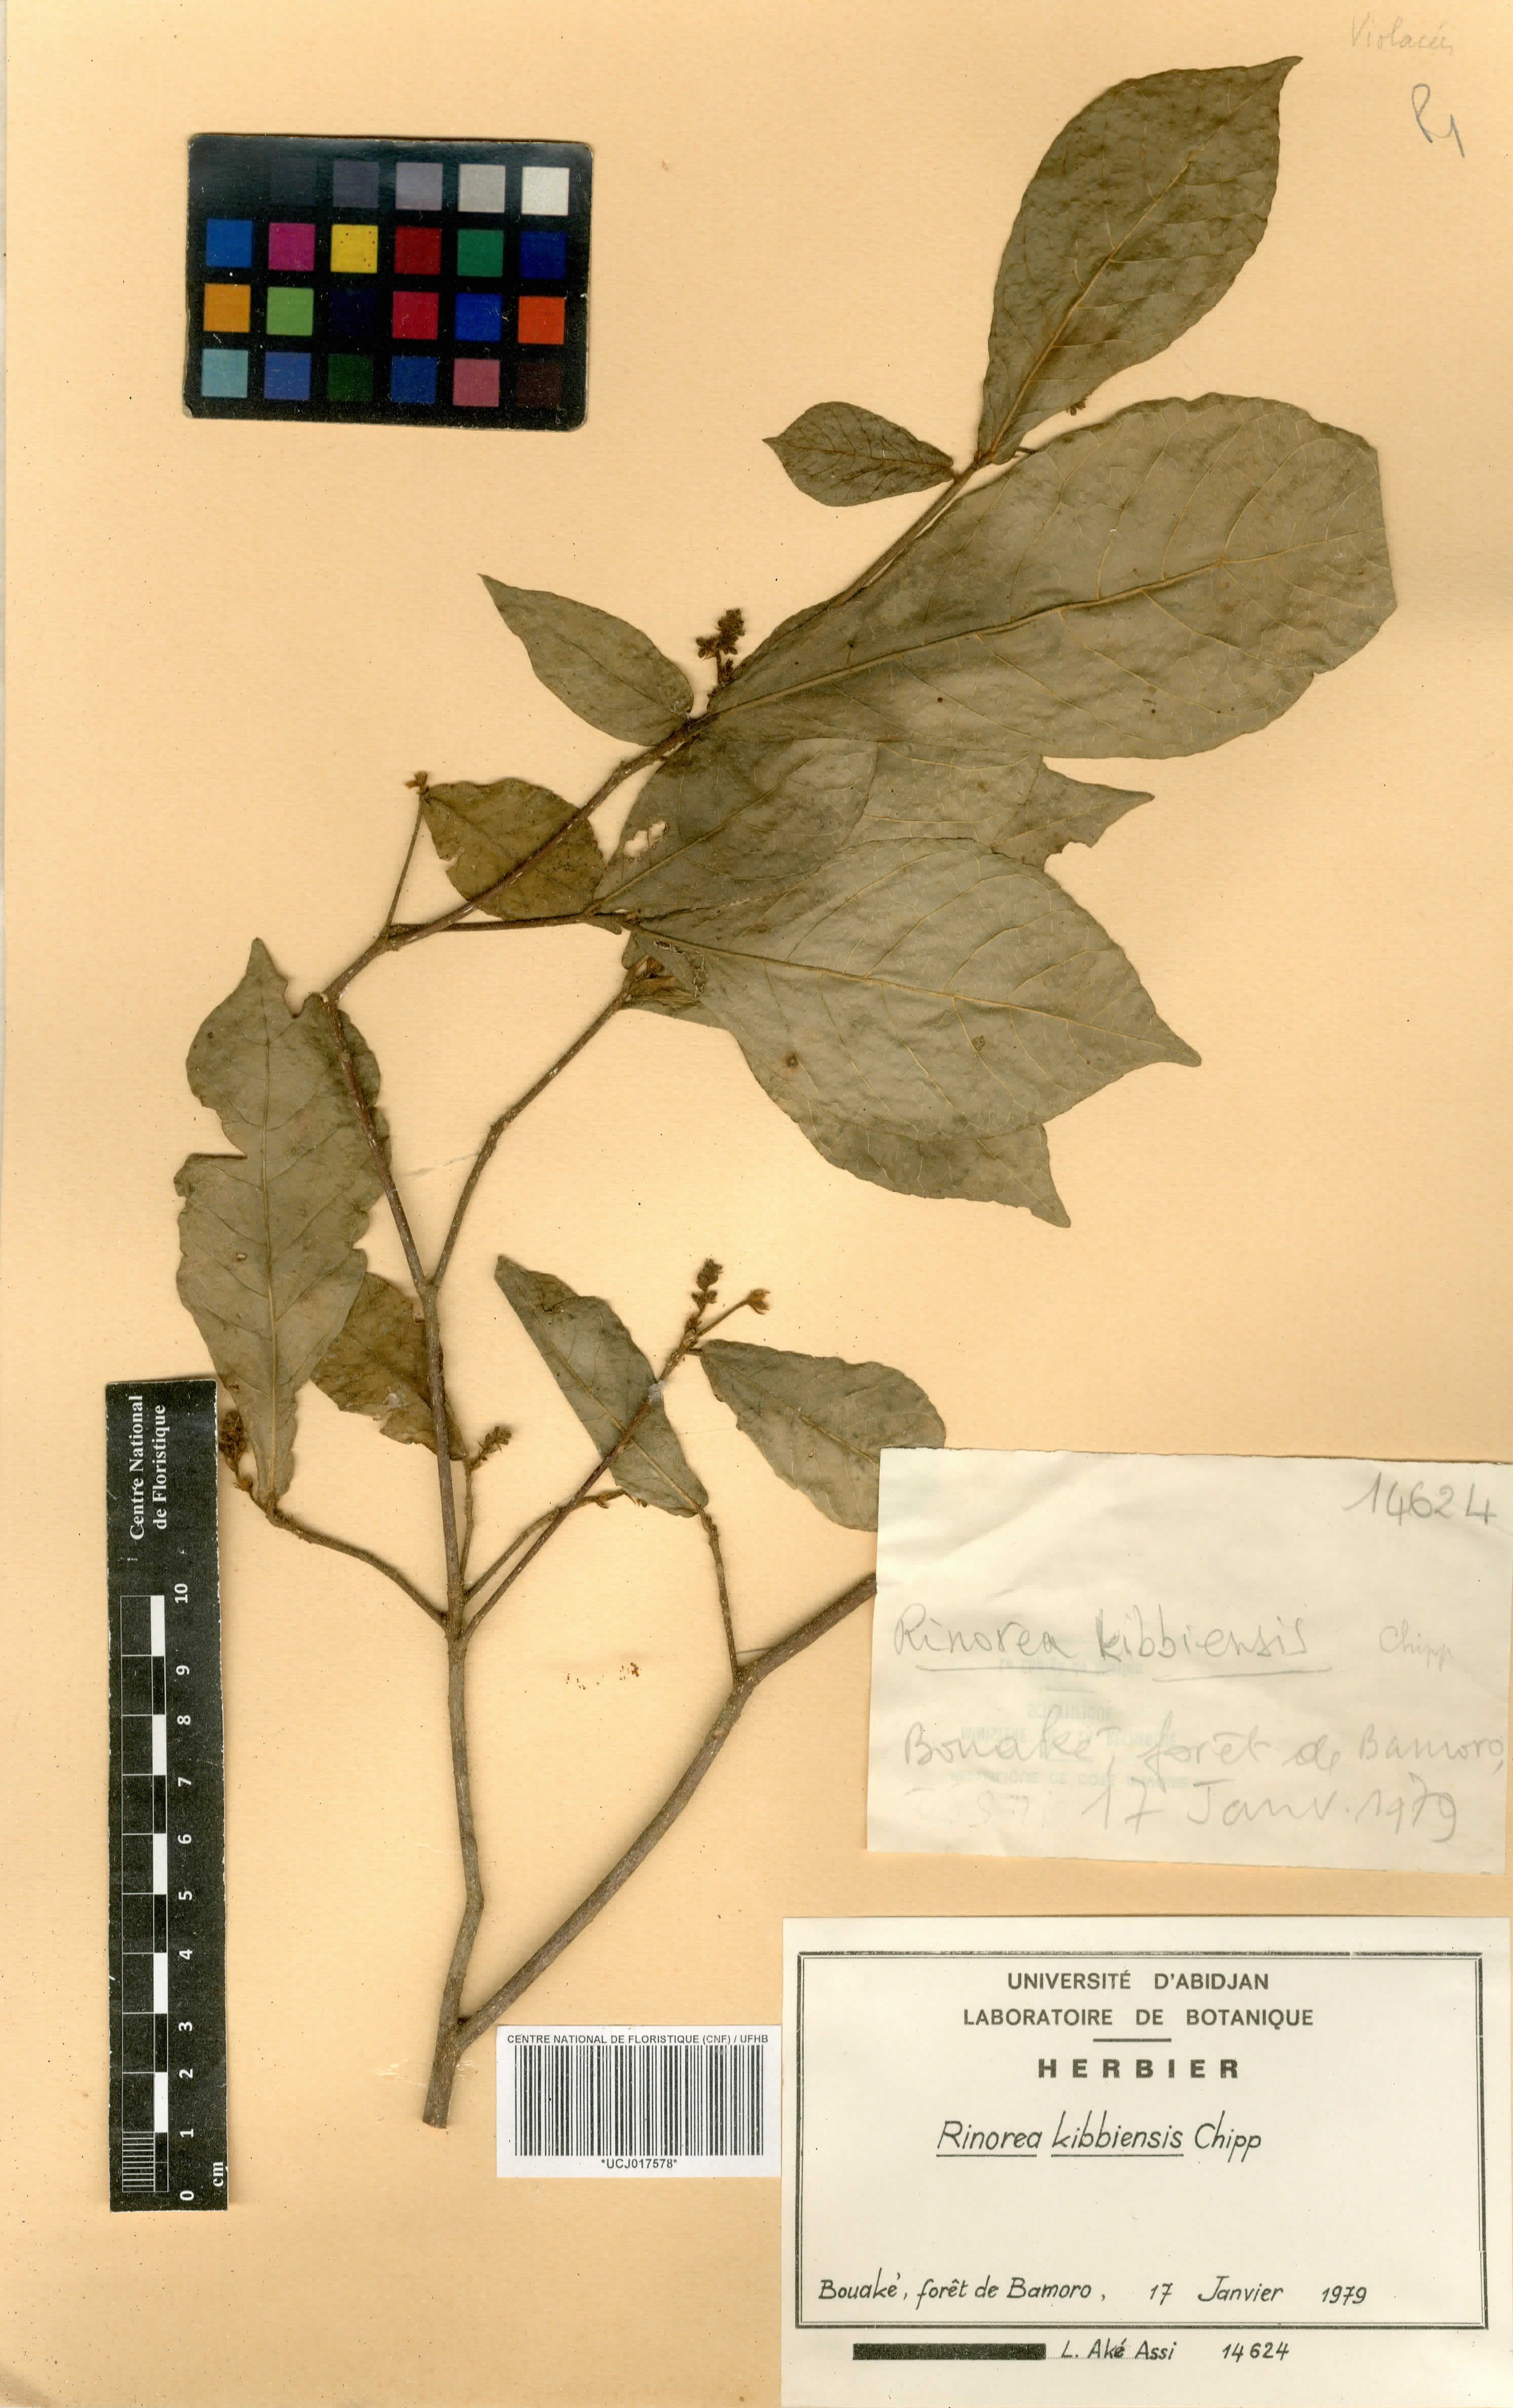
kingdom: Plantae
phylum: Tracheophyta
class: Magnoliopsida
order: Malpighiales
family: Violaceae
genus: Rinorea
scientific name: Rinorea kibbiensis
